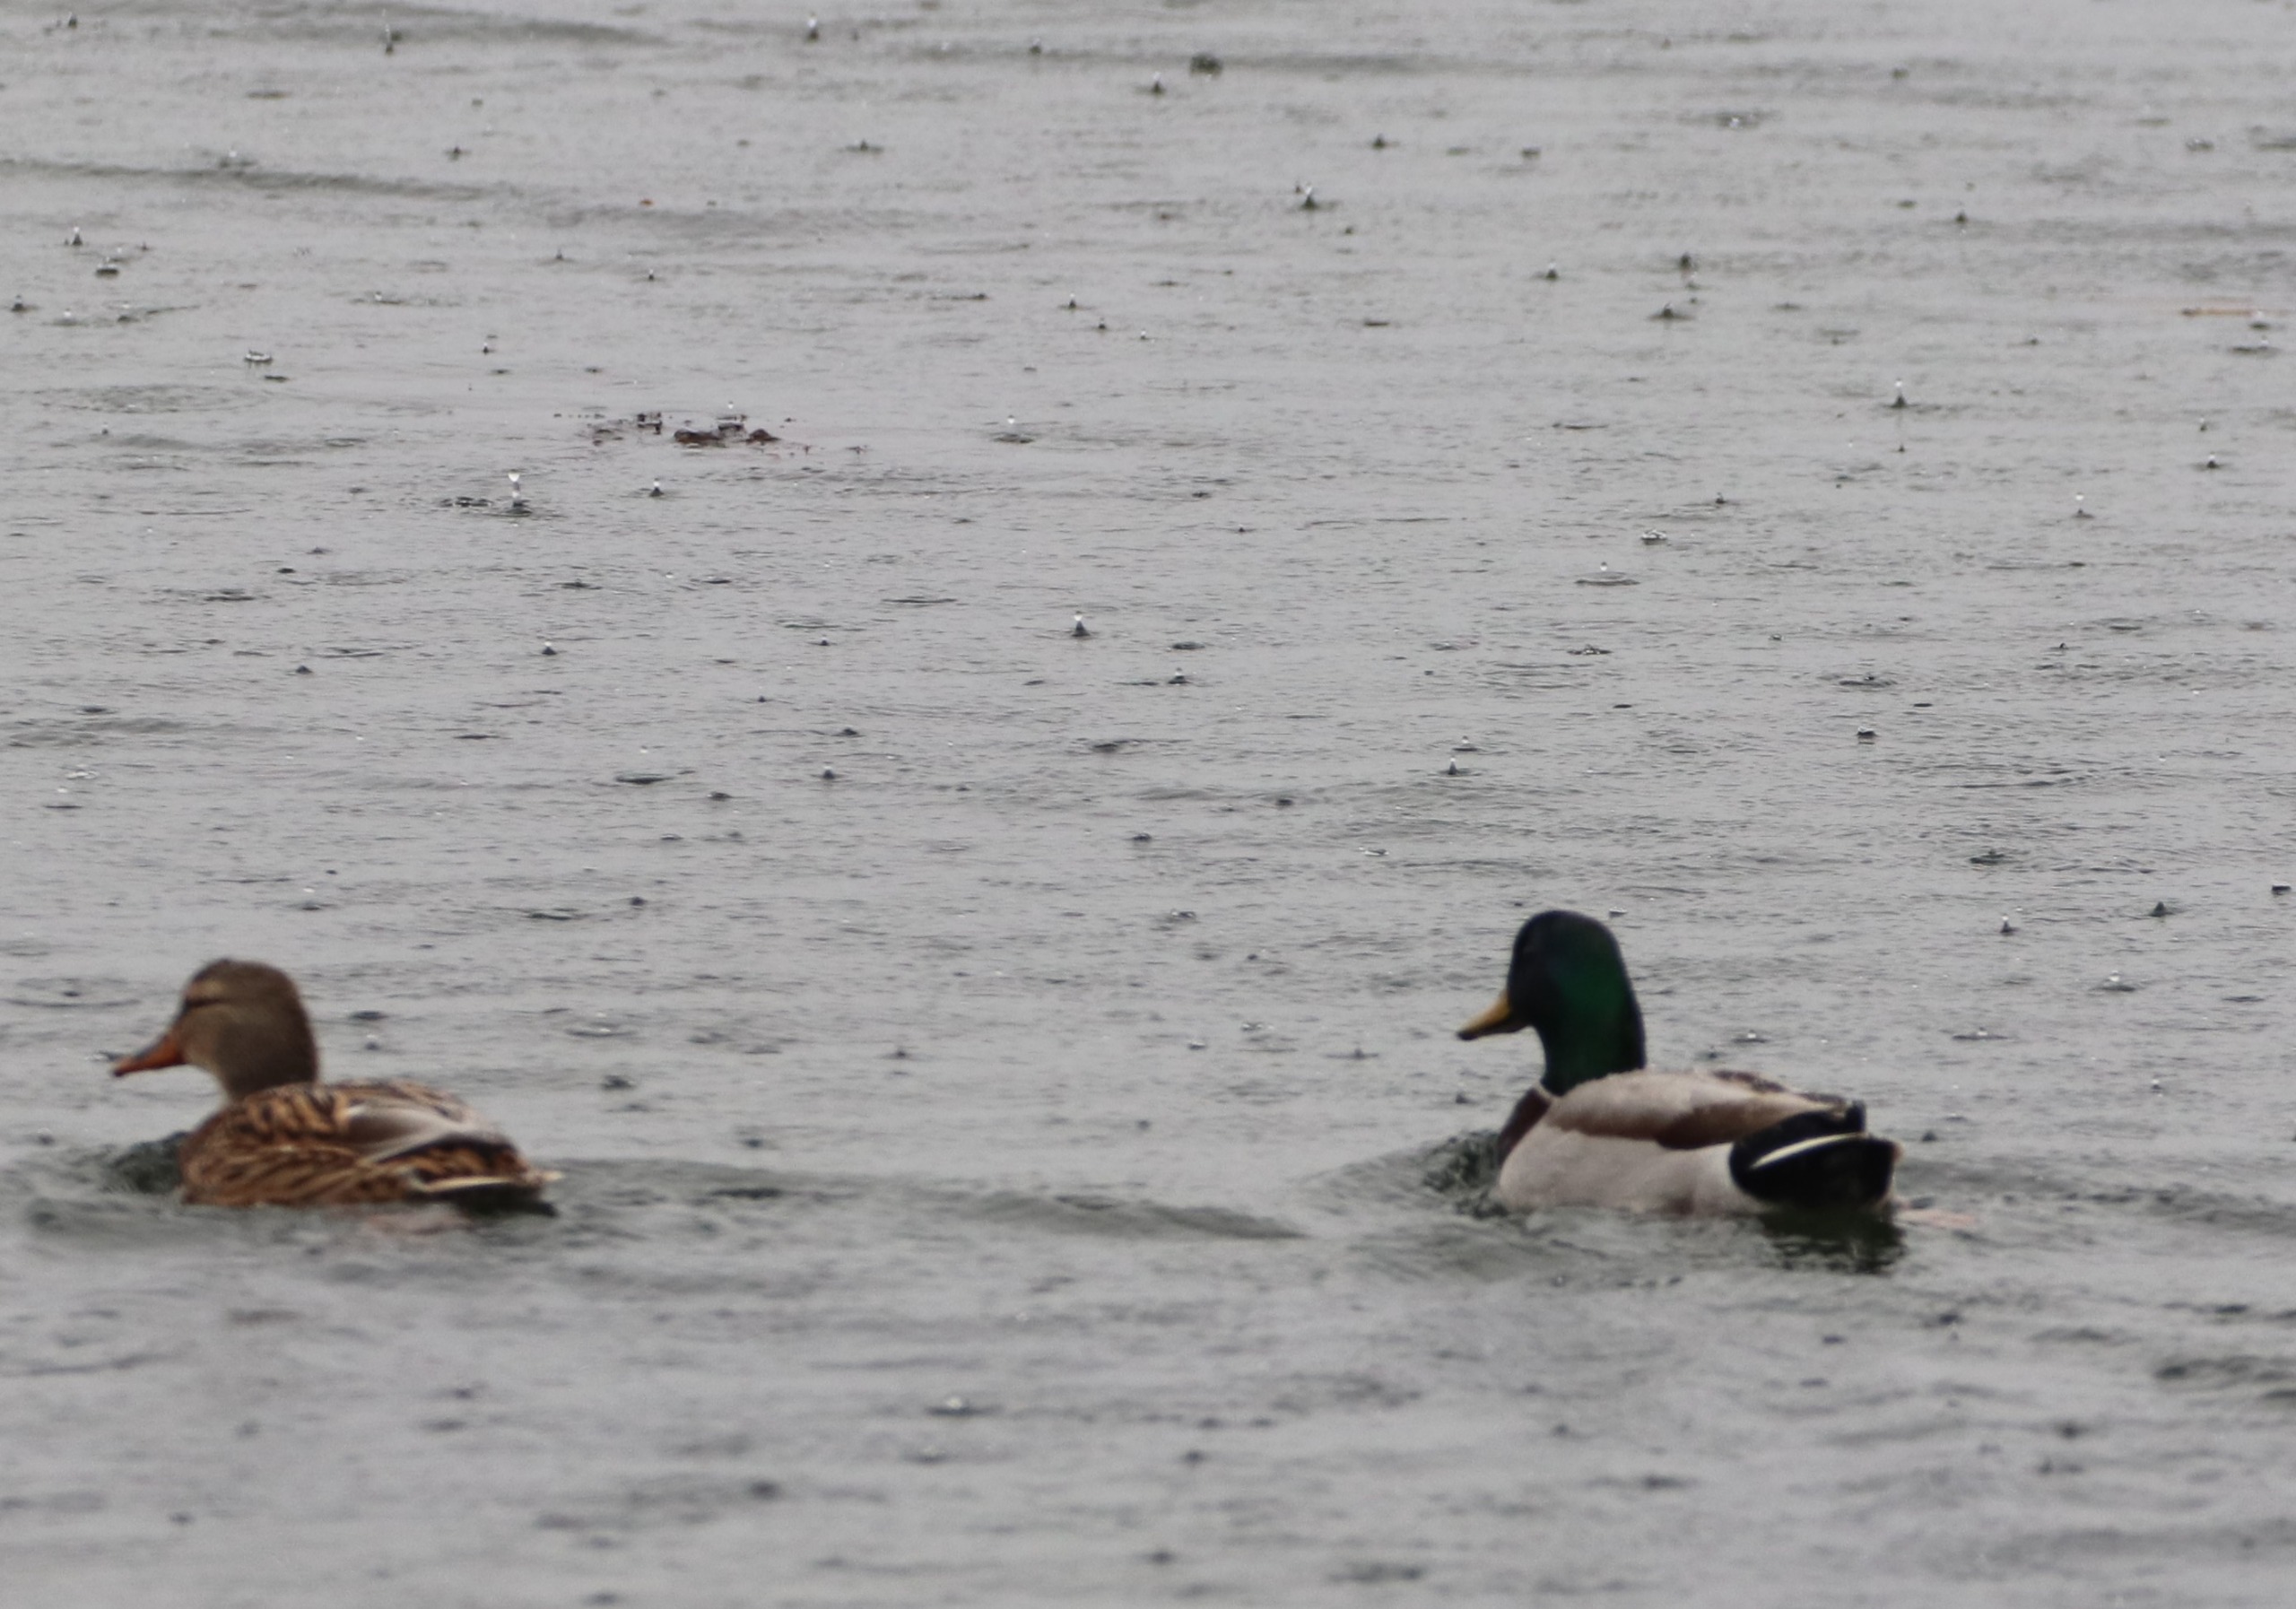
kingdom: Animalia
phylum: Chordata
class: Aves
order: Anseriformes
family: Anatidae
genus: Anas
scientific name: Anas platyrhynchos
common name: Gråand
